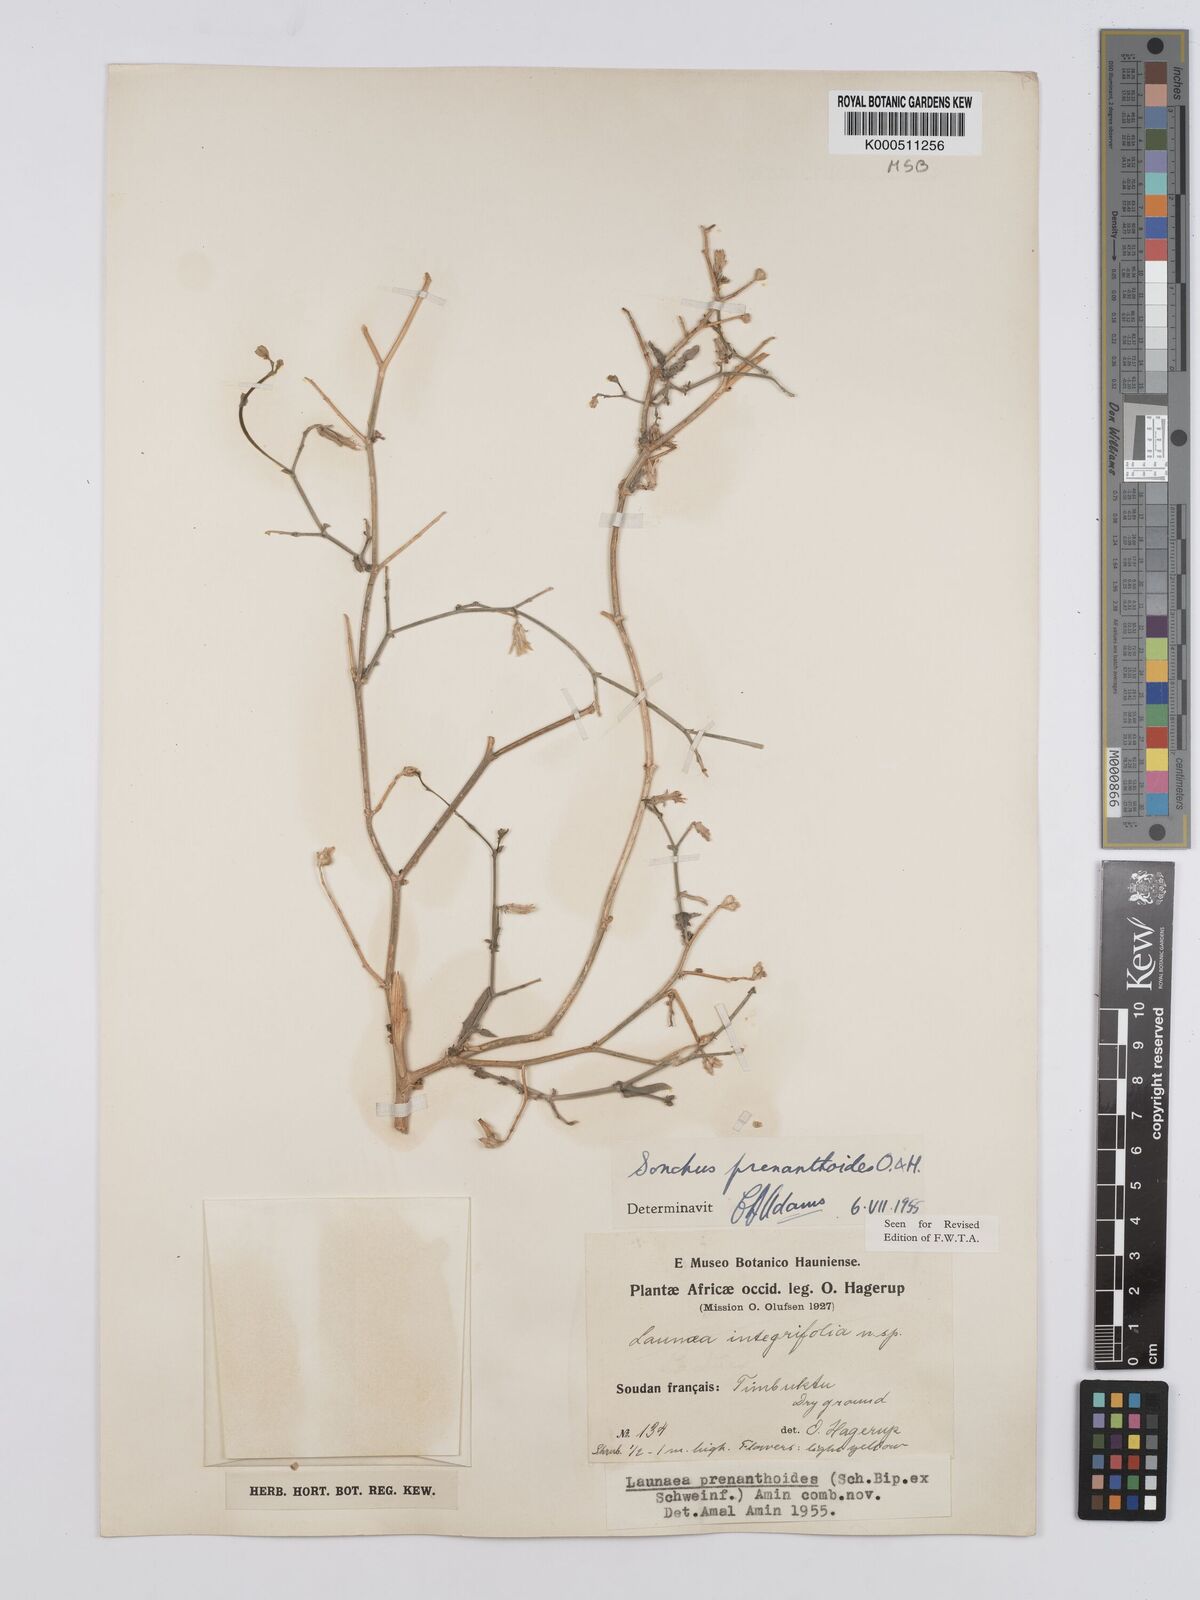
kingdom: Plantae
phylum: Tracheophyta
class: Magnoliopsida
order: Asterales
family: Asteraceae
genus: Launaea
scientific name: Launaea brunneri
